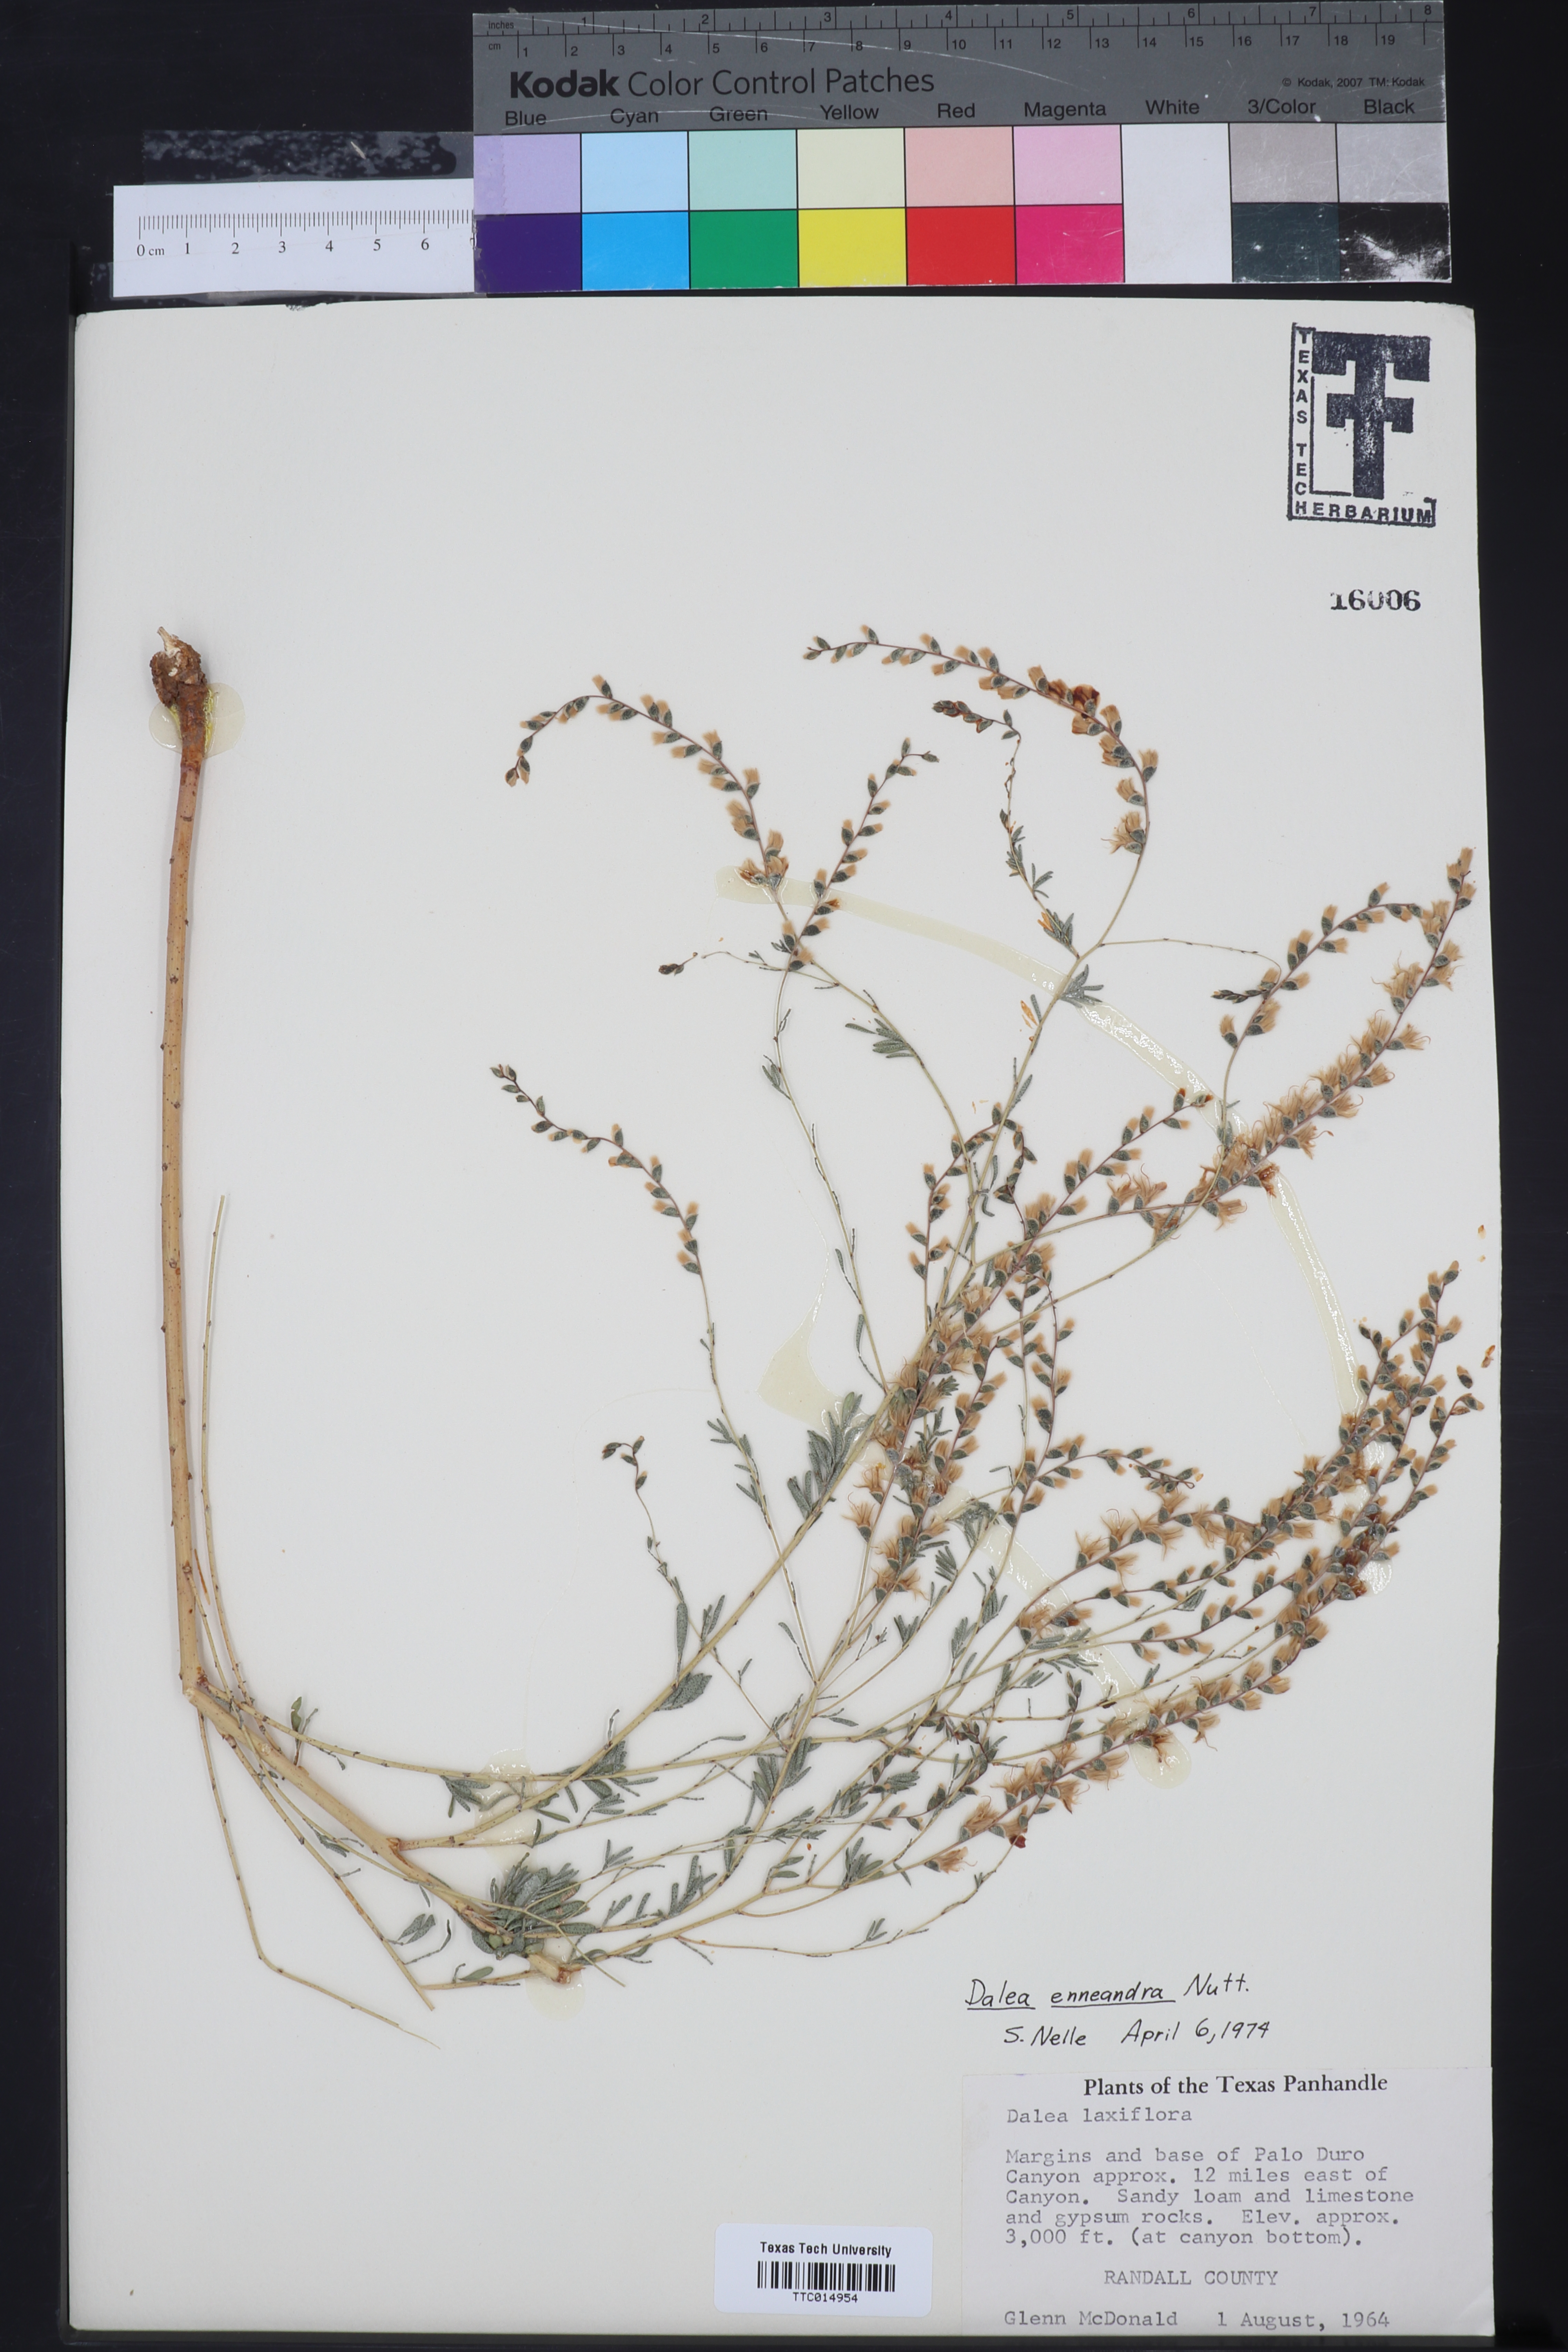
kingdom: Plantae
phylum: Tracheophyta
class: Magnoliopsida
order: Fabales
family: Fabaceae
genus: Dalea
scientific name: Dalea enneandra
